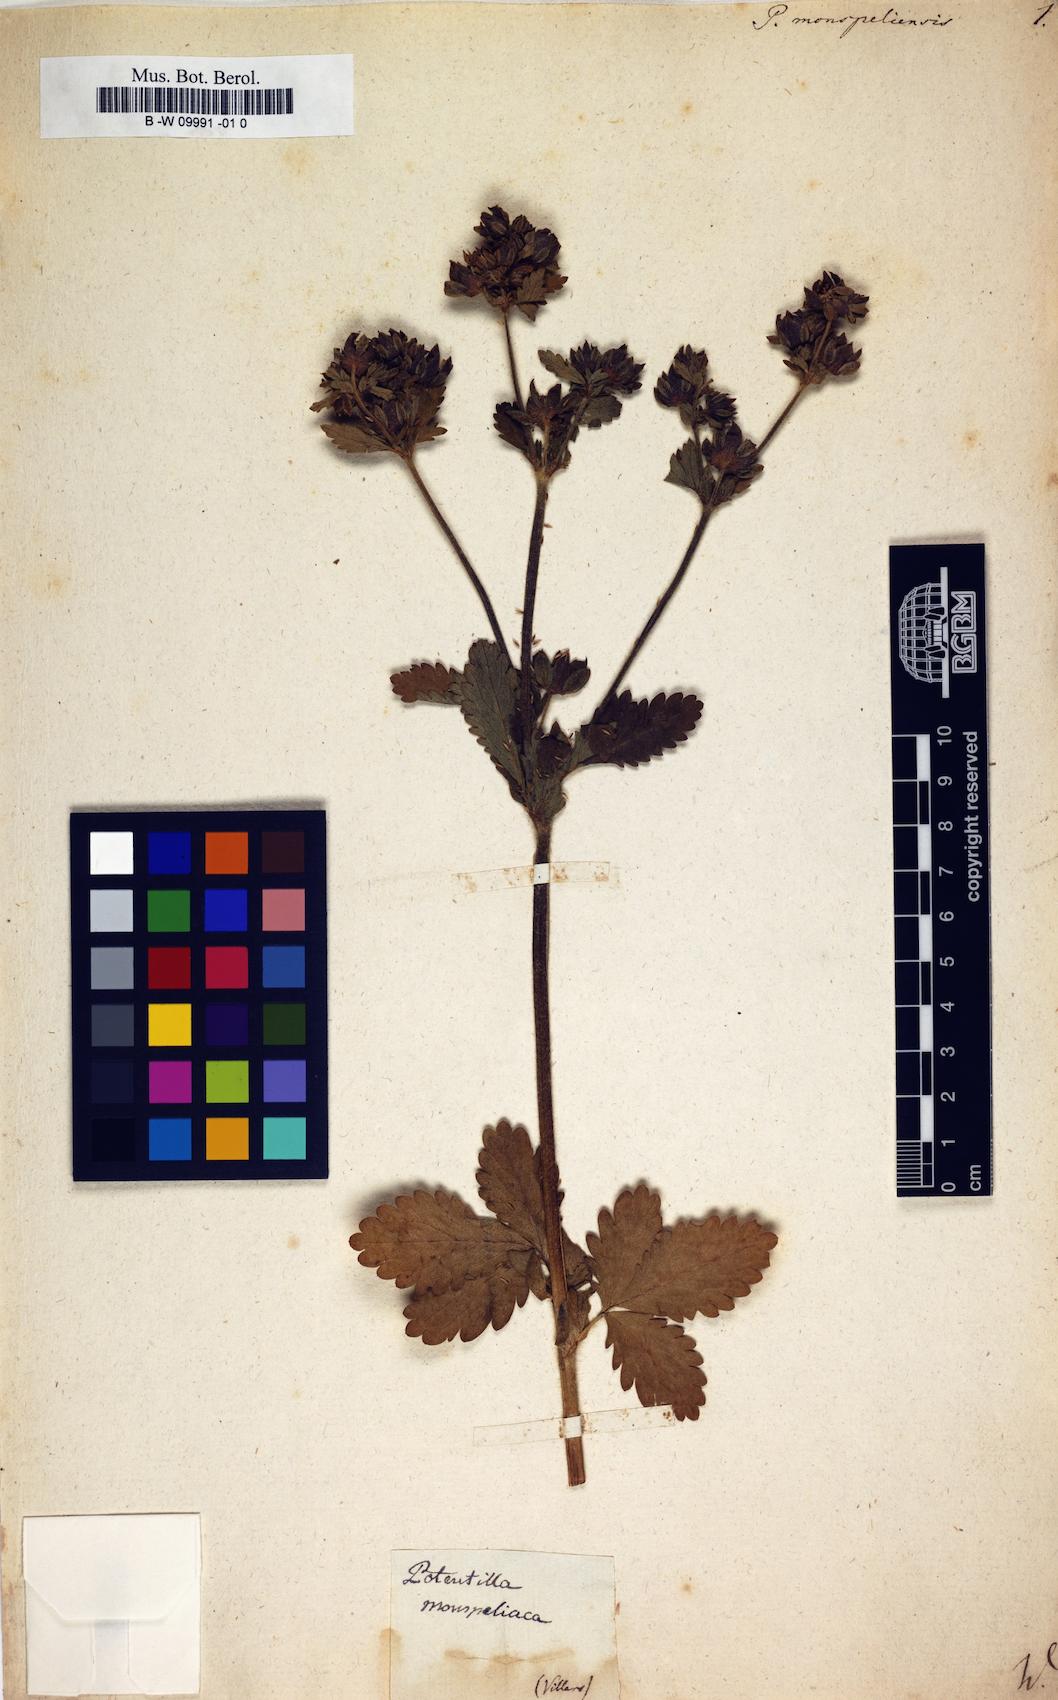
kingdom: Plantae
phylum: Tracheophyta
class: Magnoliopsida
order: Rosales
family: Rosaceae
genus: Potentilla
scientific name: Potentilla norvegica
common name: Ternate-leaved cinquefoil
